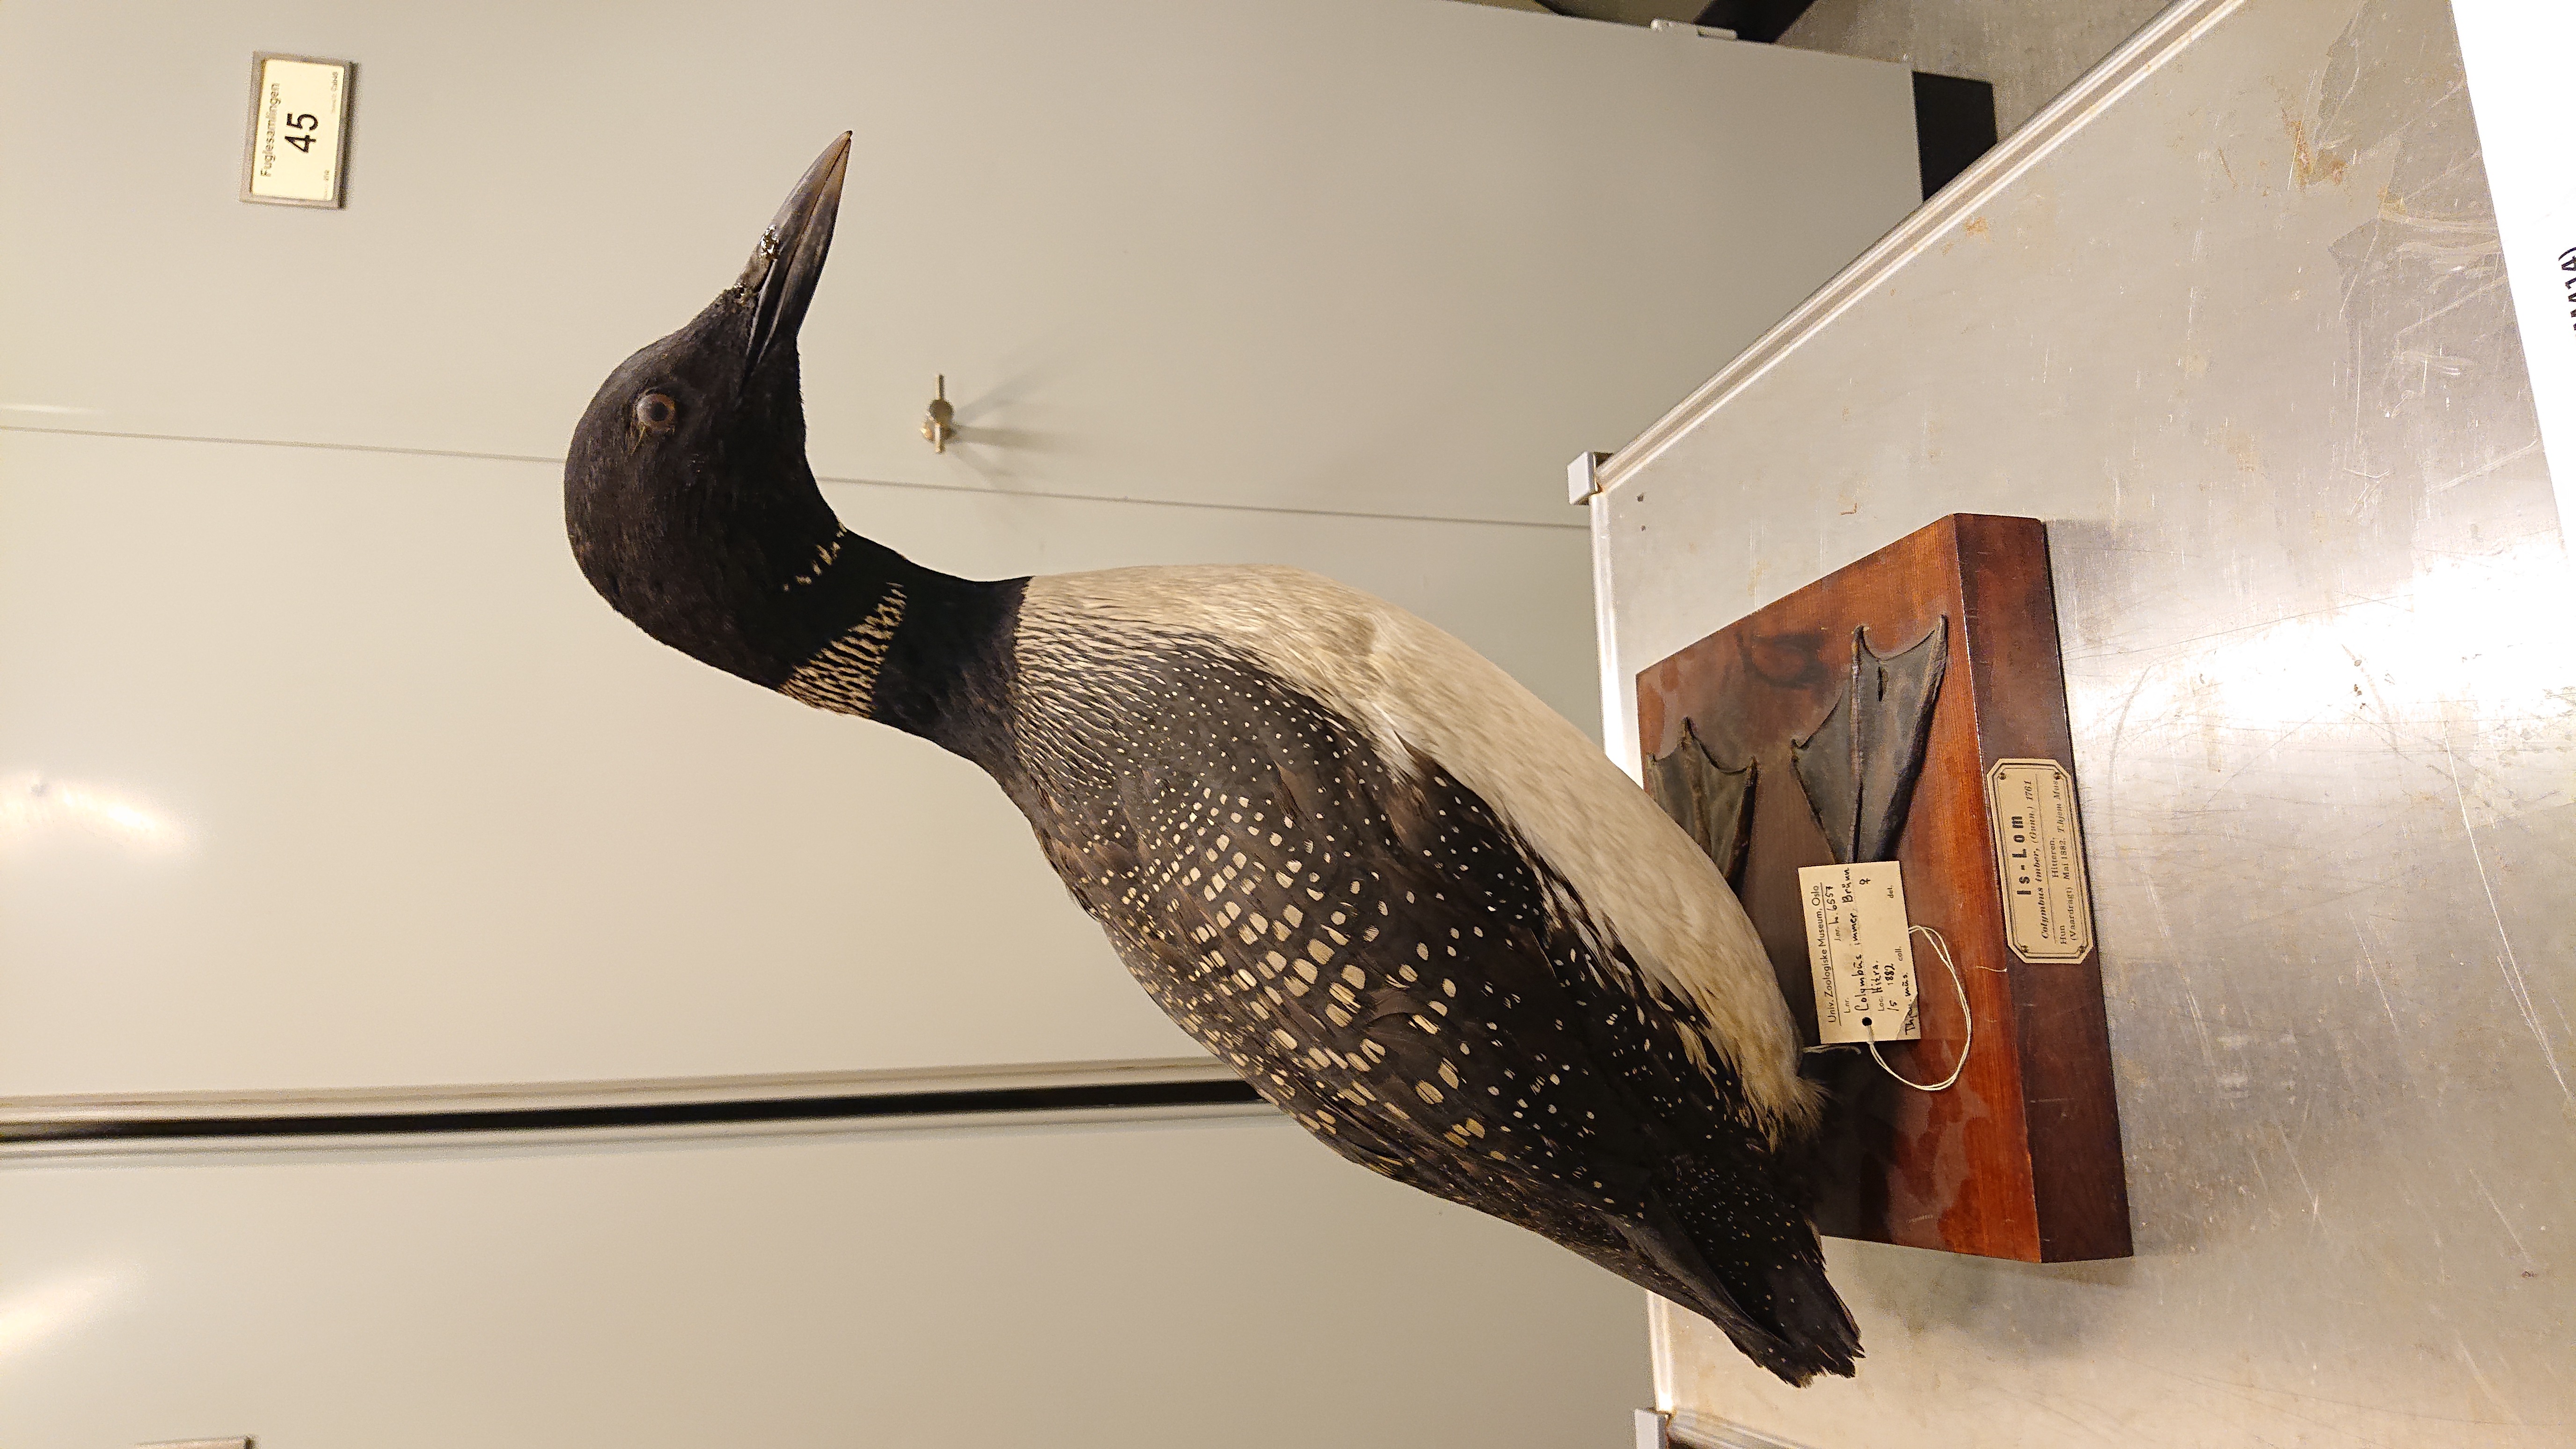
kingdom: Animalia
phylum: Chordata
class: Aves
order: Gaviiformes
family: Gaviidae
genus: Gavia
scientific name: Gavia immer
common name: Common loon
